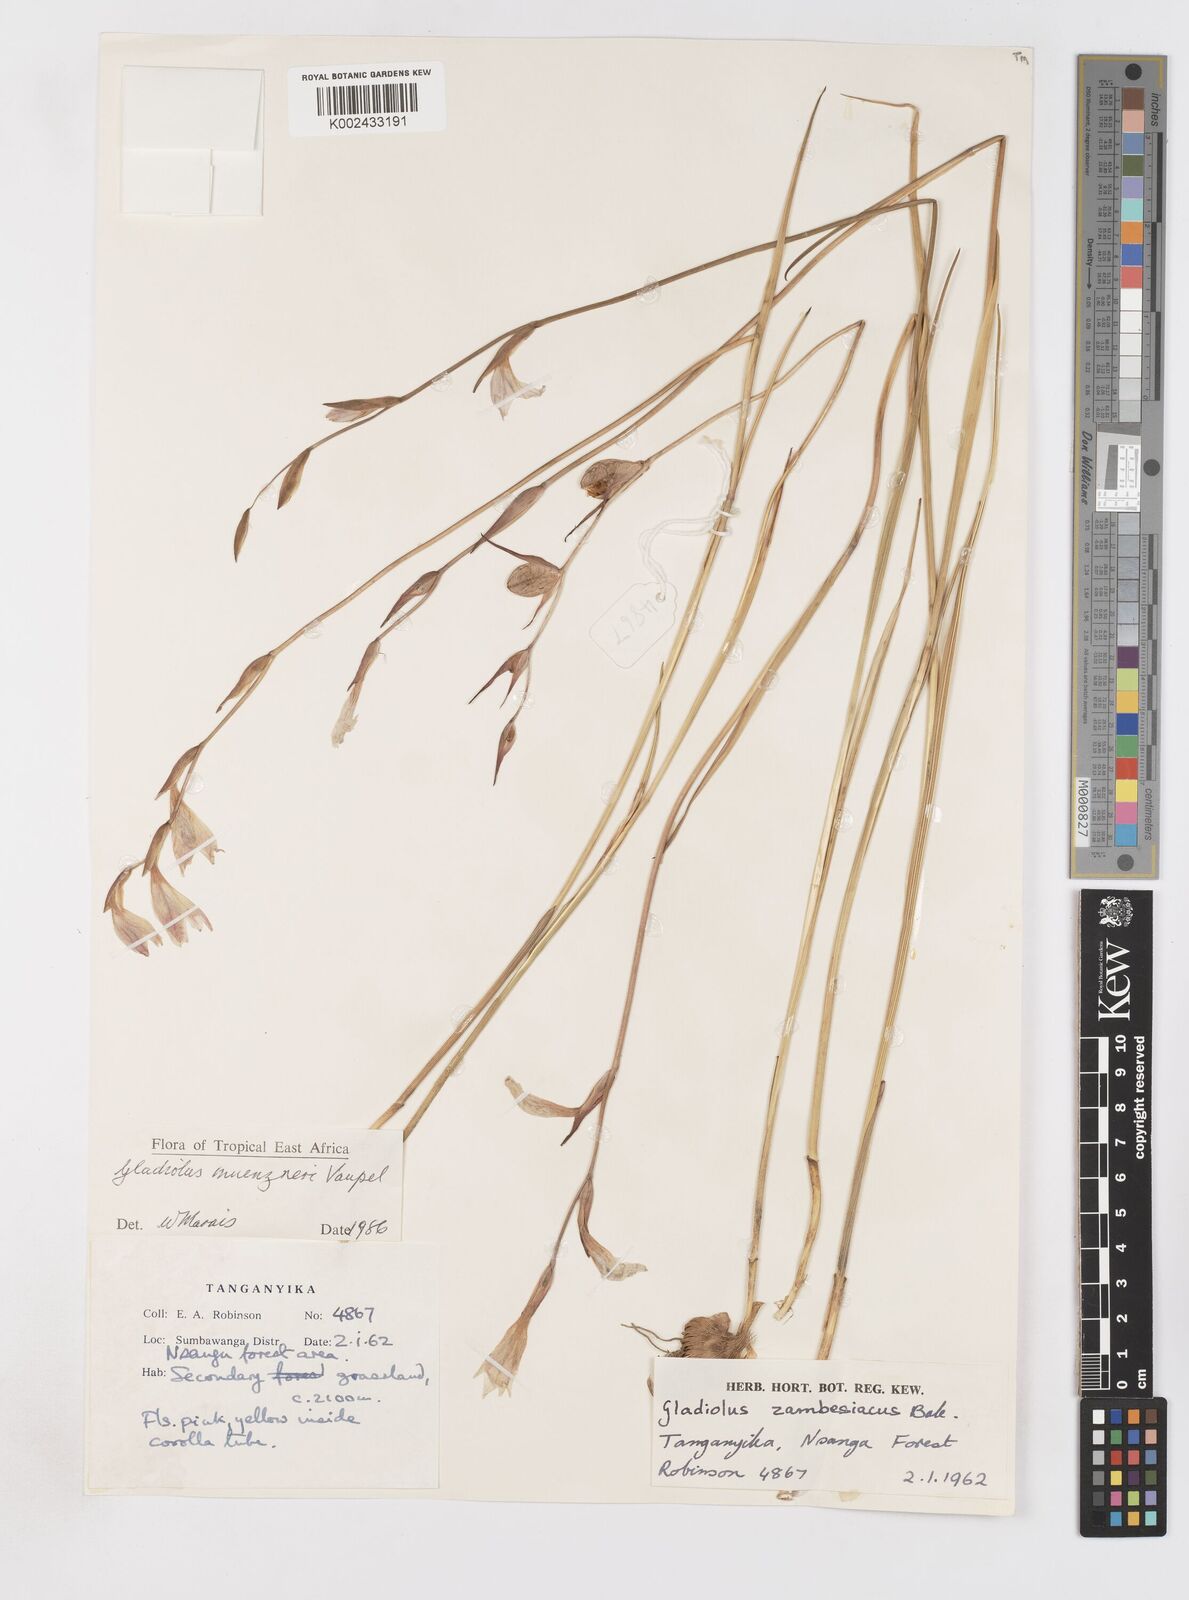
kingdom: Plantae
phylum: Tracheophyta
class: Liliopsida
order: Asparagales
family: Iridaceae
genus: Gladiolus
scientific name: Gladiolus muenzneri
